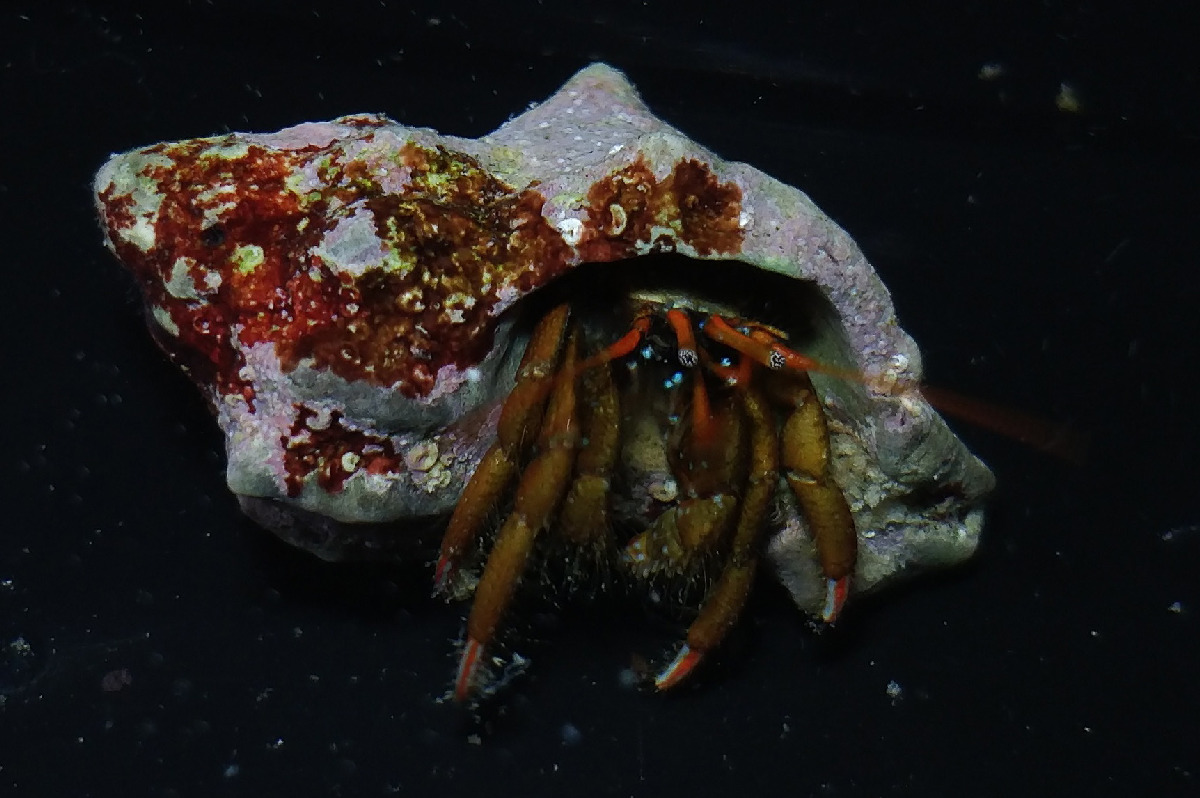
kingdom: Animalia
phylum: Arthropoda
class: Malacostraca
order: Decapoda
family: Diogenidae
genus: Clibanarius
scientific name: Clibanarius erythropus
